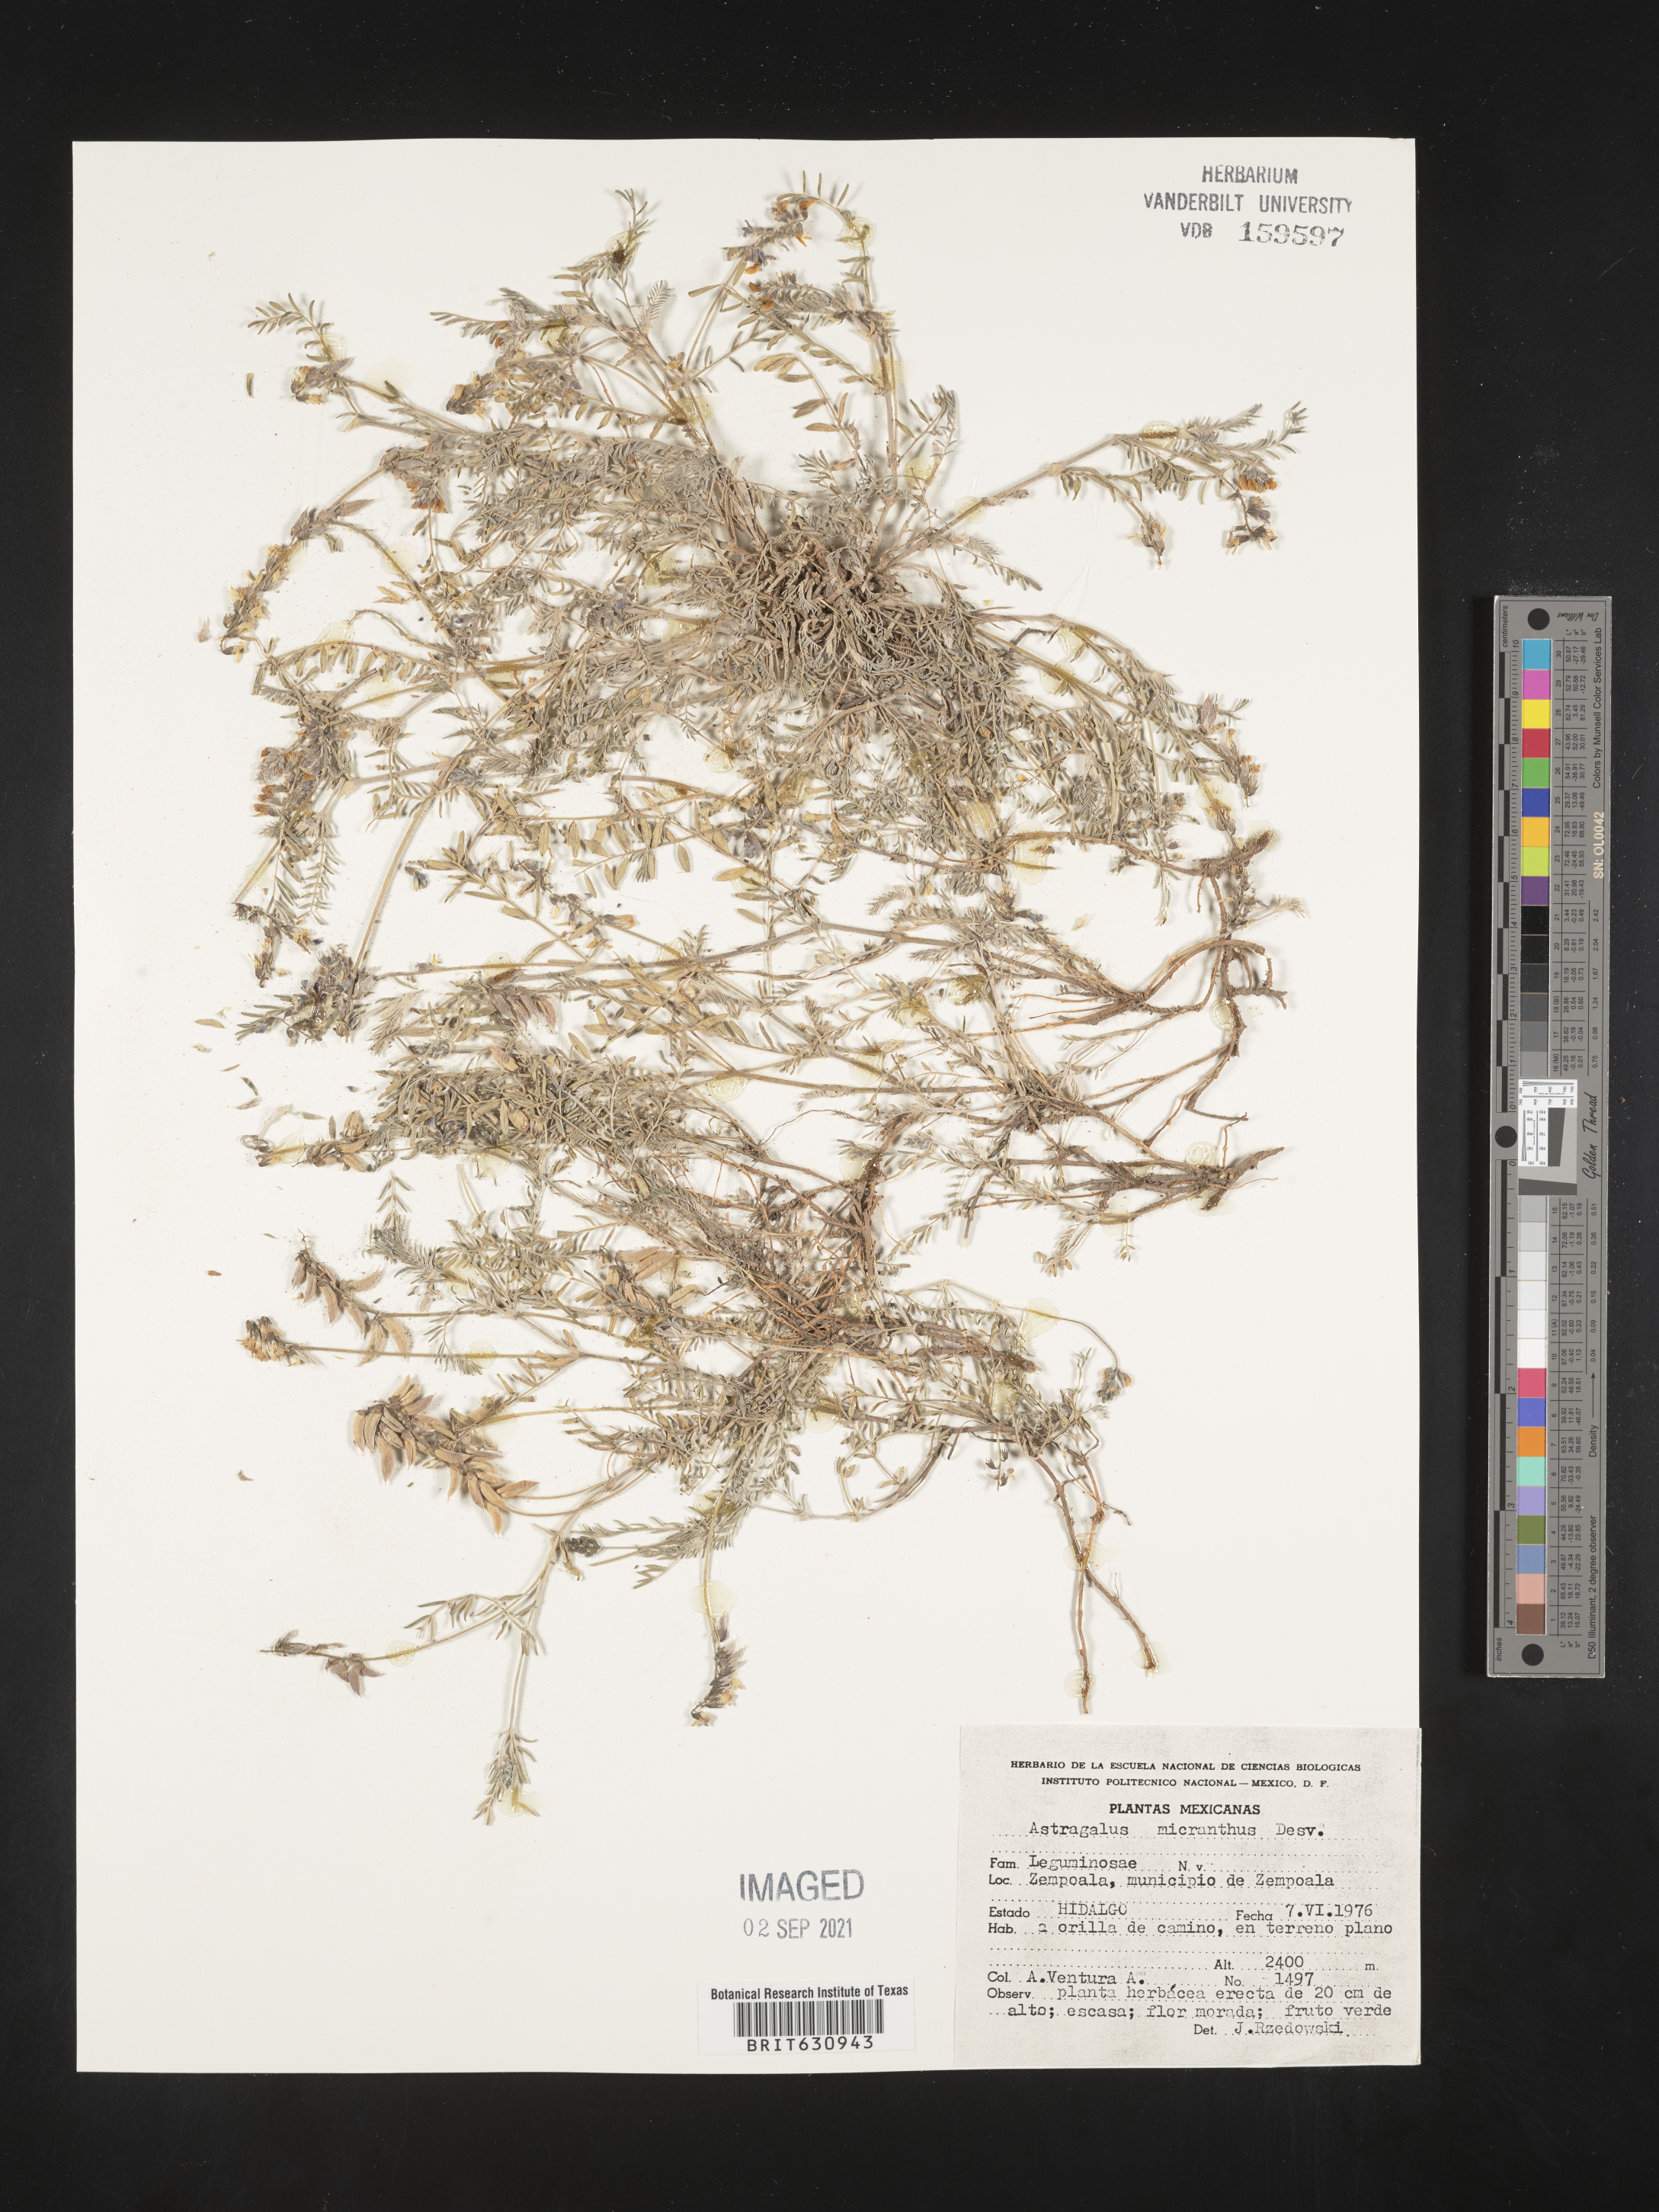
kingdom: Plantae
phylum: Tracheophyta
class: Magnoliopsida
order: Fabales
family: Fabaceae
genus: Astragalus
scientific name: Astragalus
